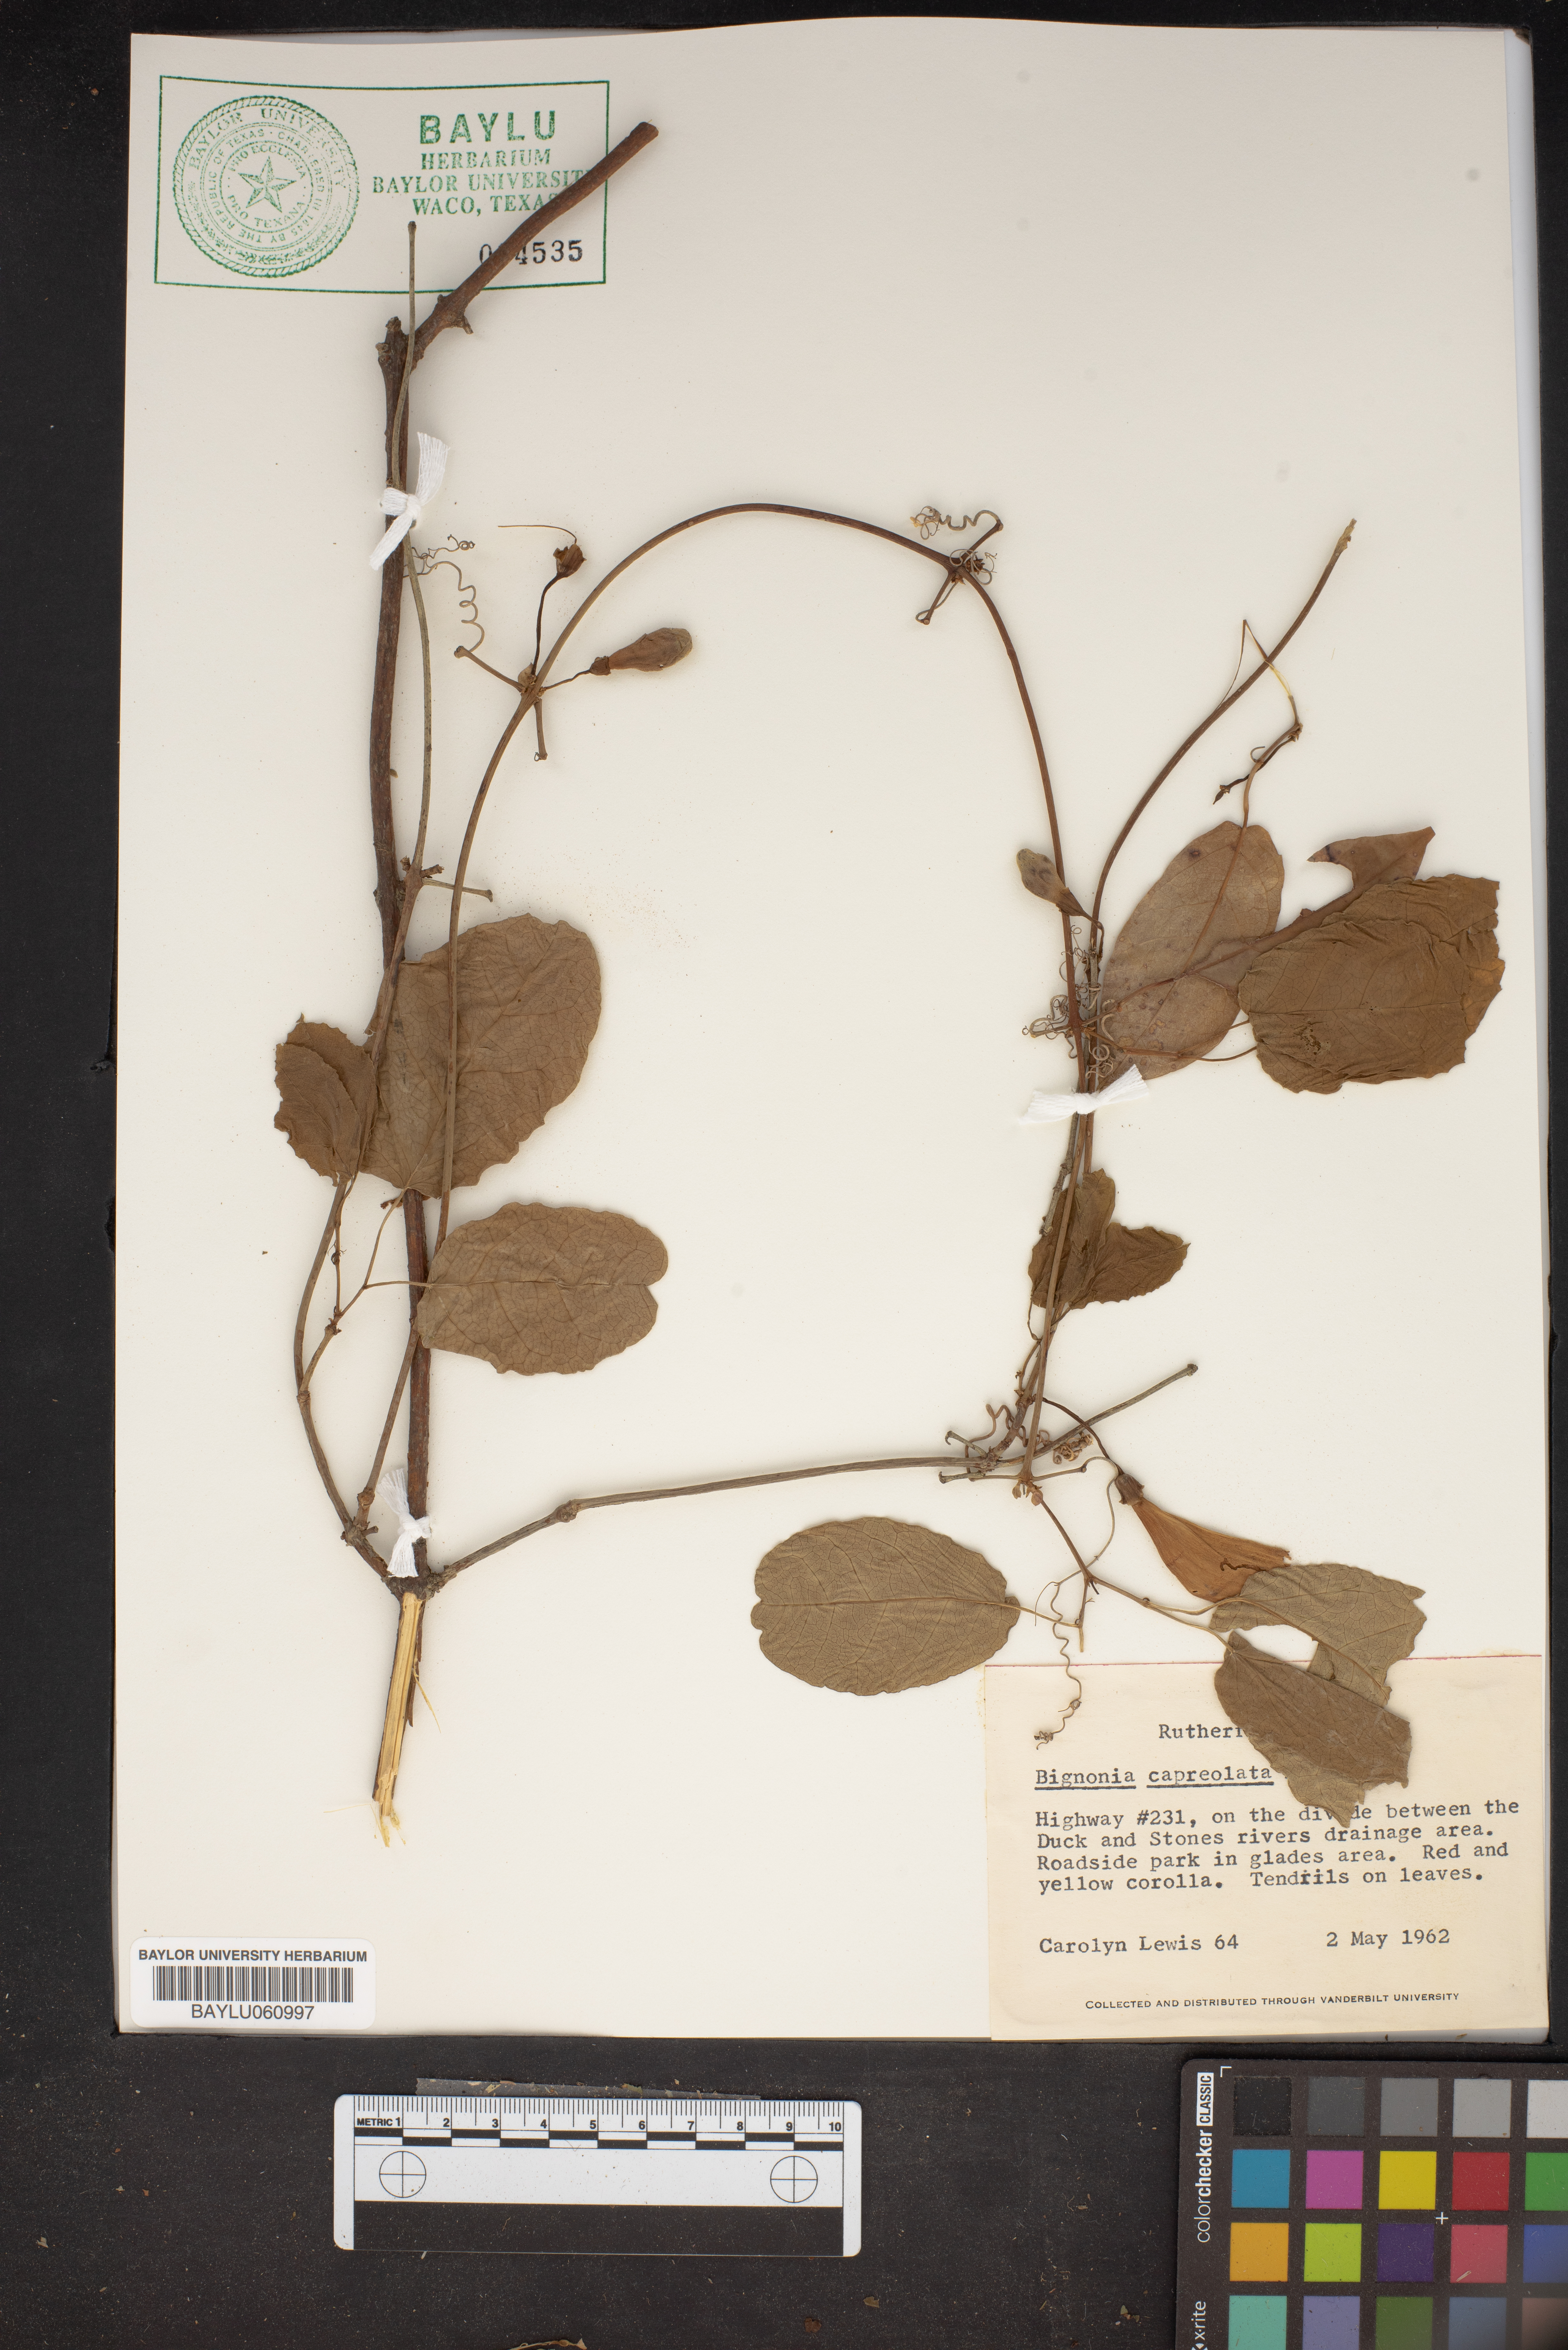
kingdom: Plantae
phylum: Tracheophyta
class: Magnoliopsida
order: Lamiales
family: Bignoniaceae
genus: Bignonia
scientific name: Bignonia capreolata
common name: Crossvine
